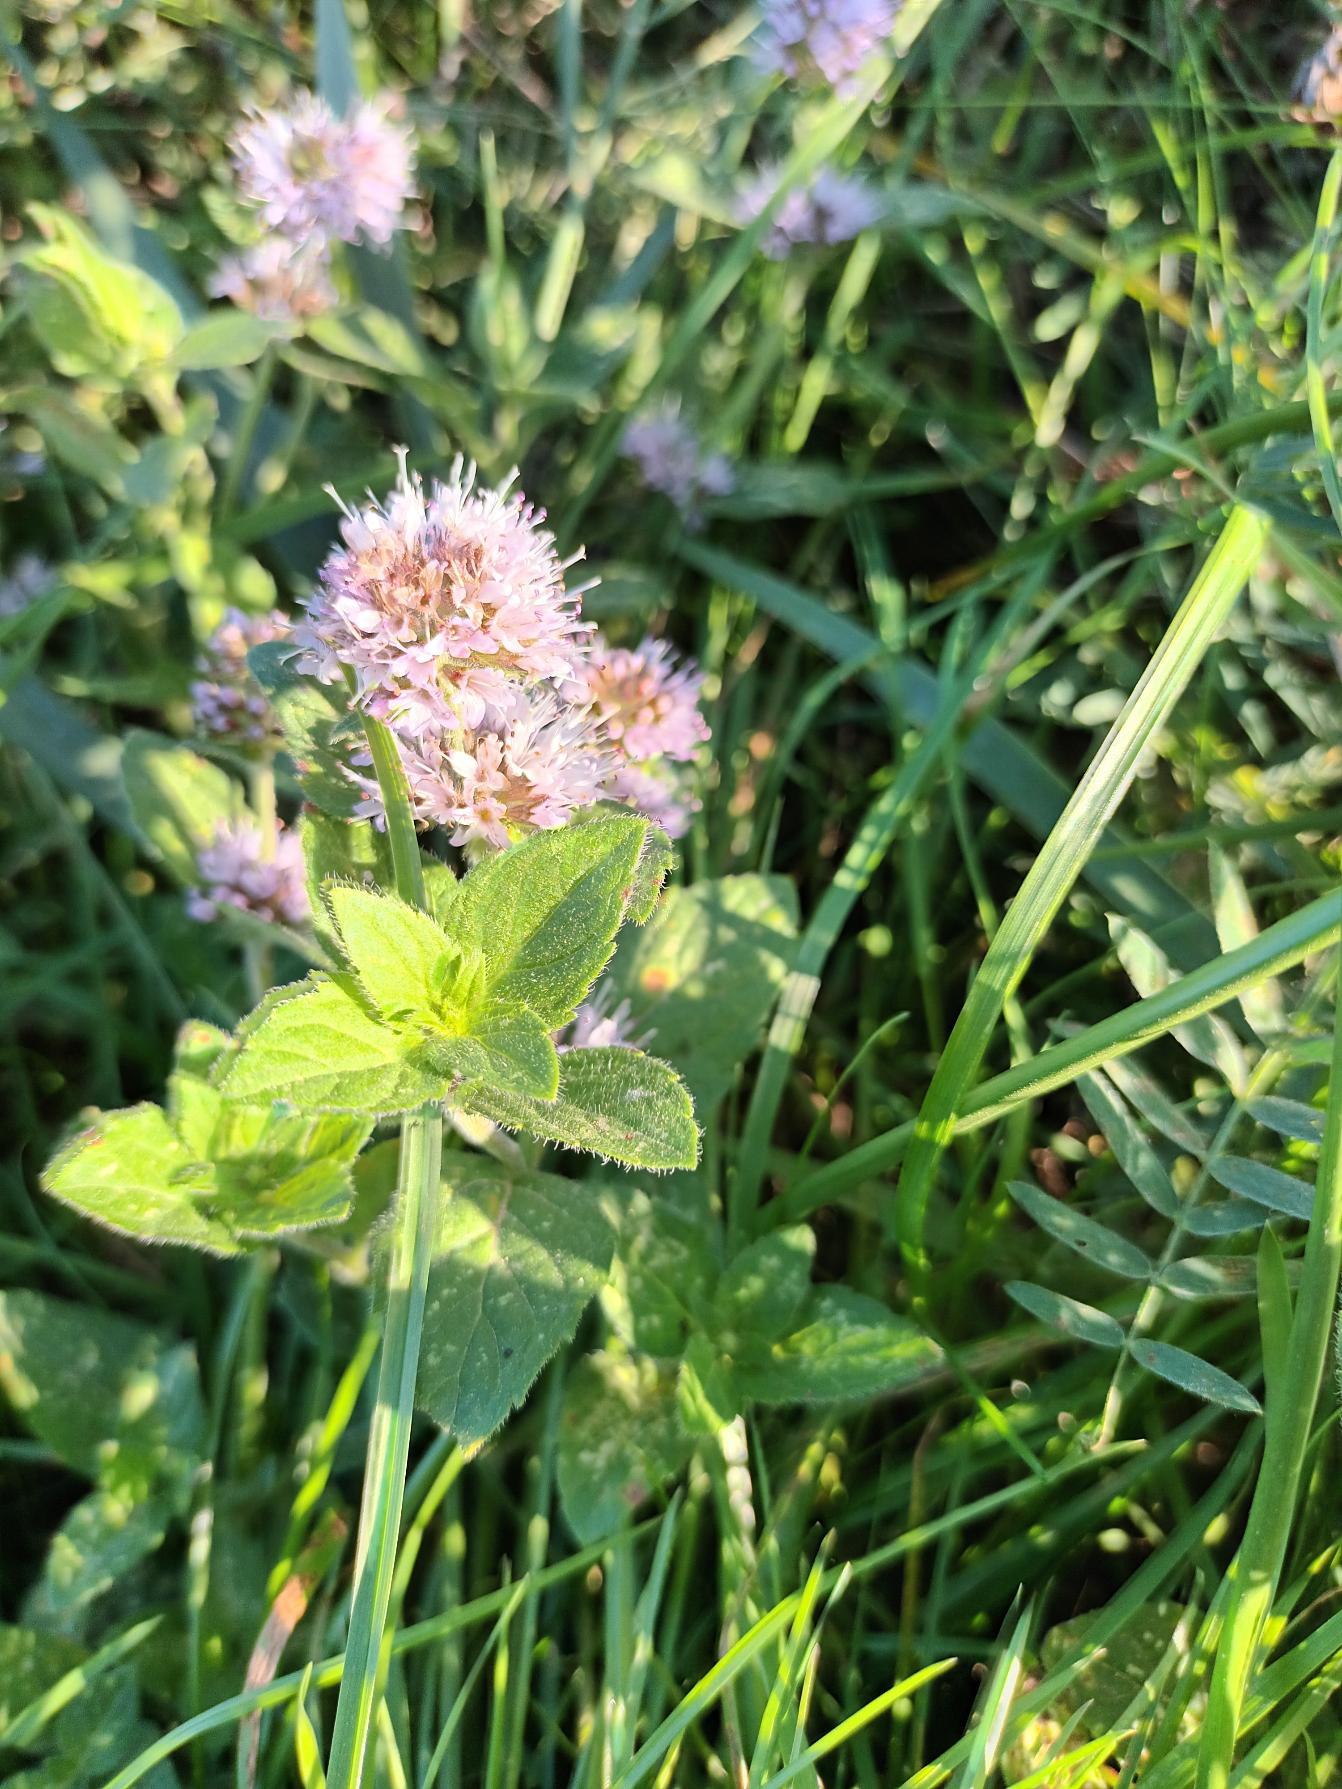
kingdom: Plantae
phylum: Tracheophyta
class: Magnoliopsida
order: Lamiales
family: Lamiaceae
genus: Mentha
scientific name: Mentha aquatica
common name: Vand-mynte
